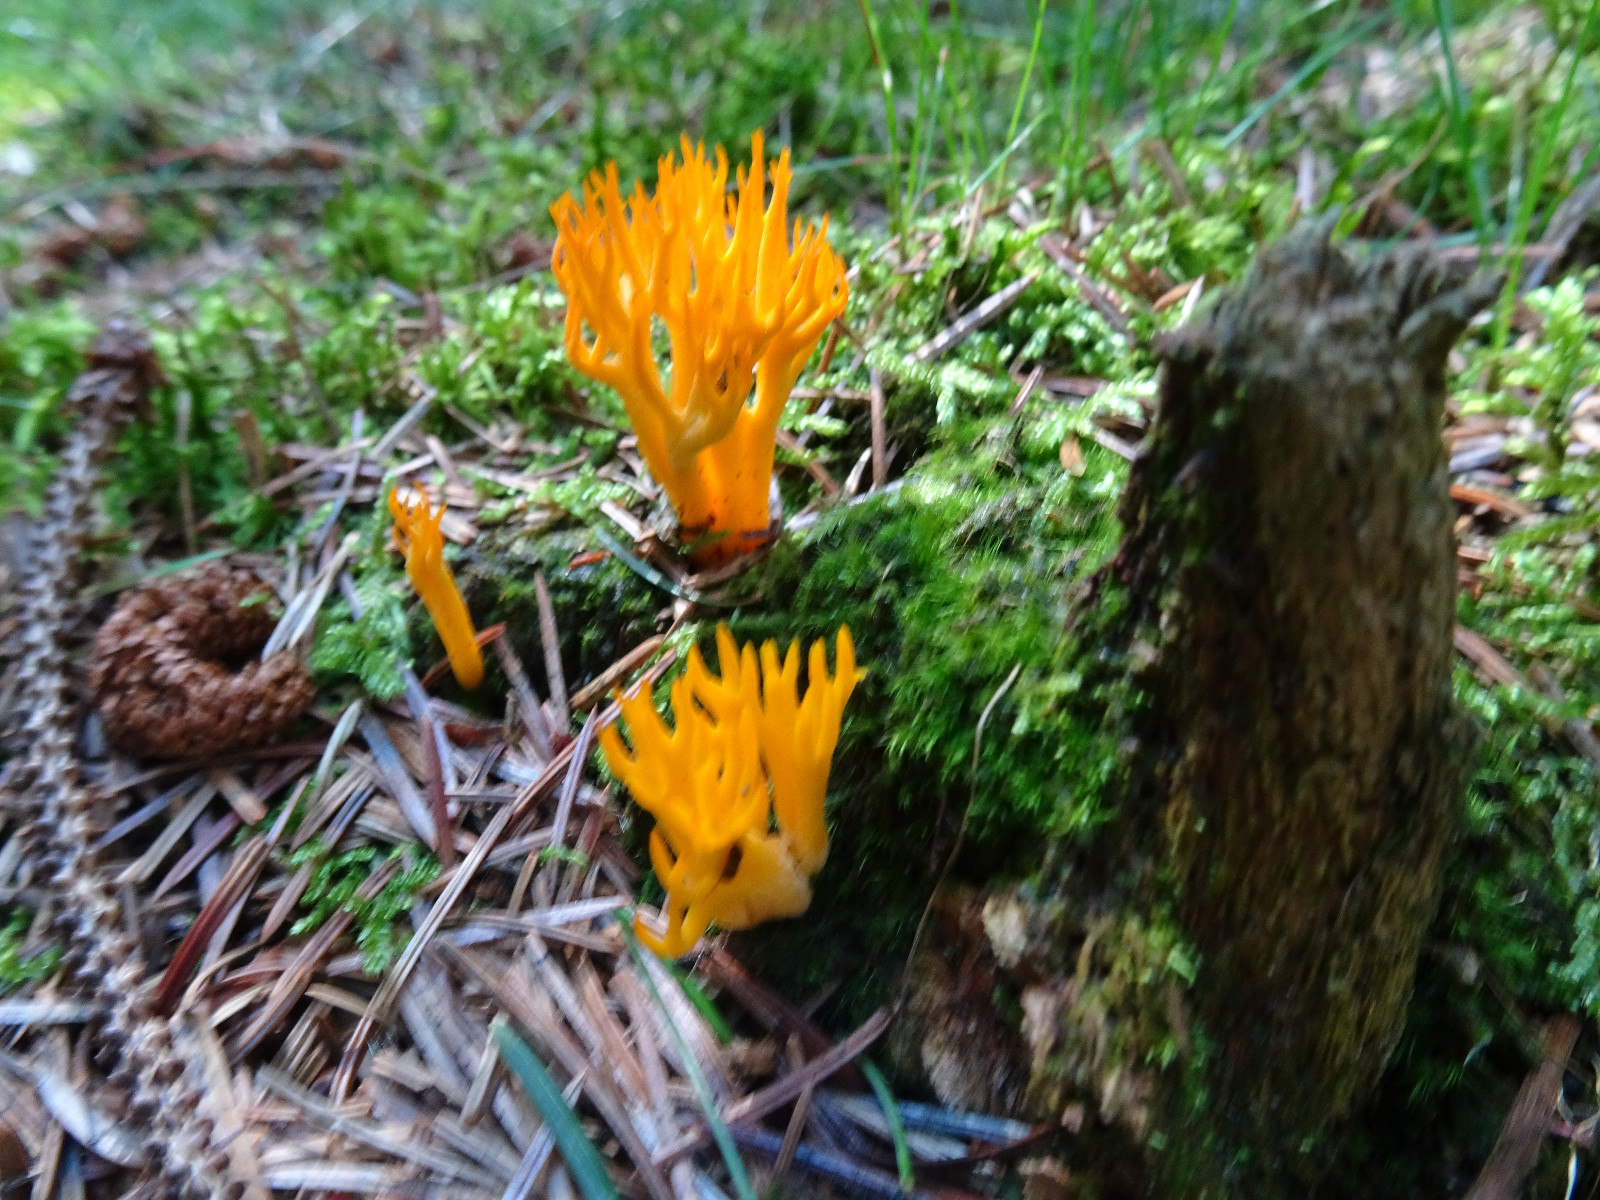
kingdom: Fungi
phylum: Basidiomycota
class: Dacrymycetes
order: Dacrymycetales
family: Dacrymycetaceae
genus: Calocera
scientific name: Calocera viscosa
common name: almindelig guldgaffel
